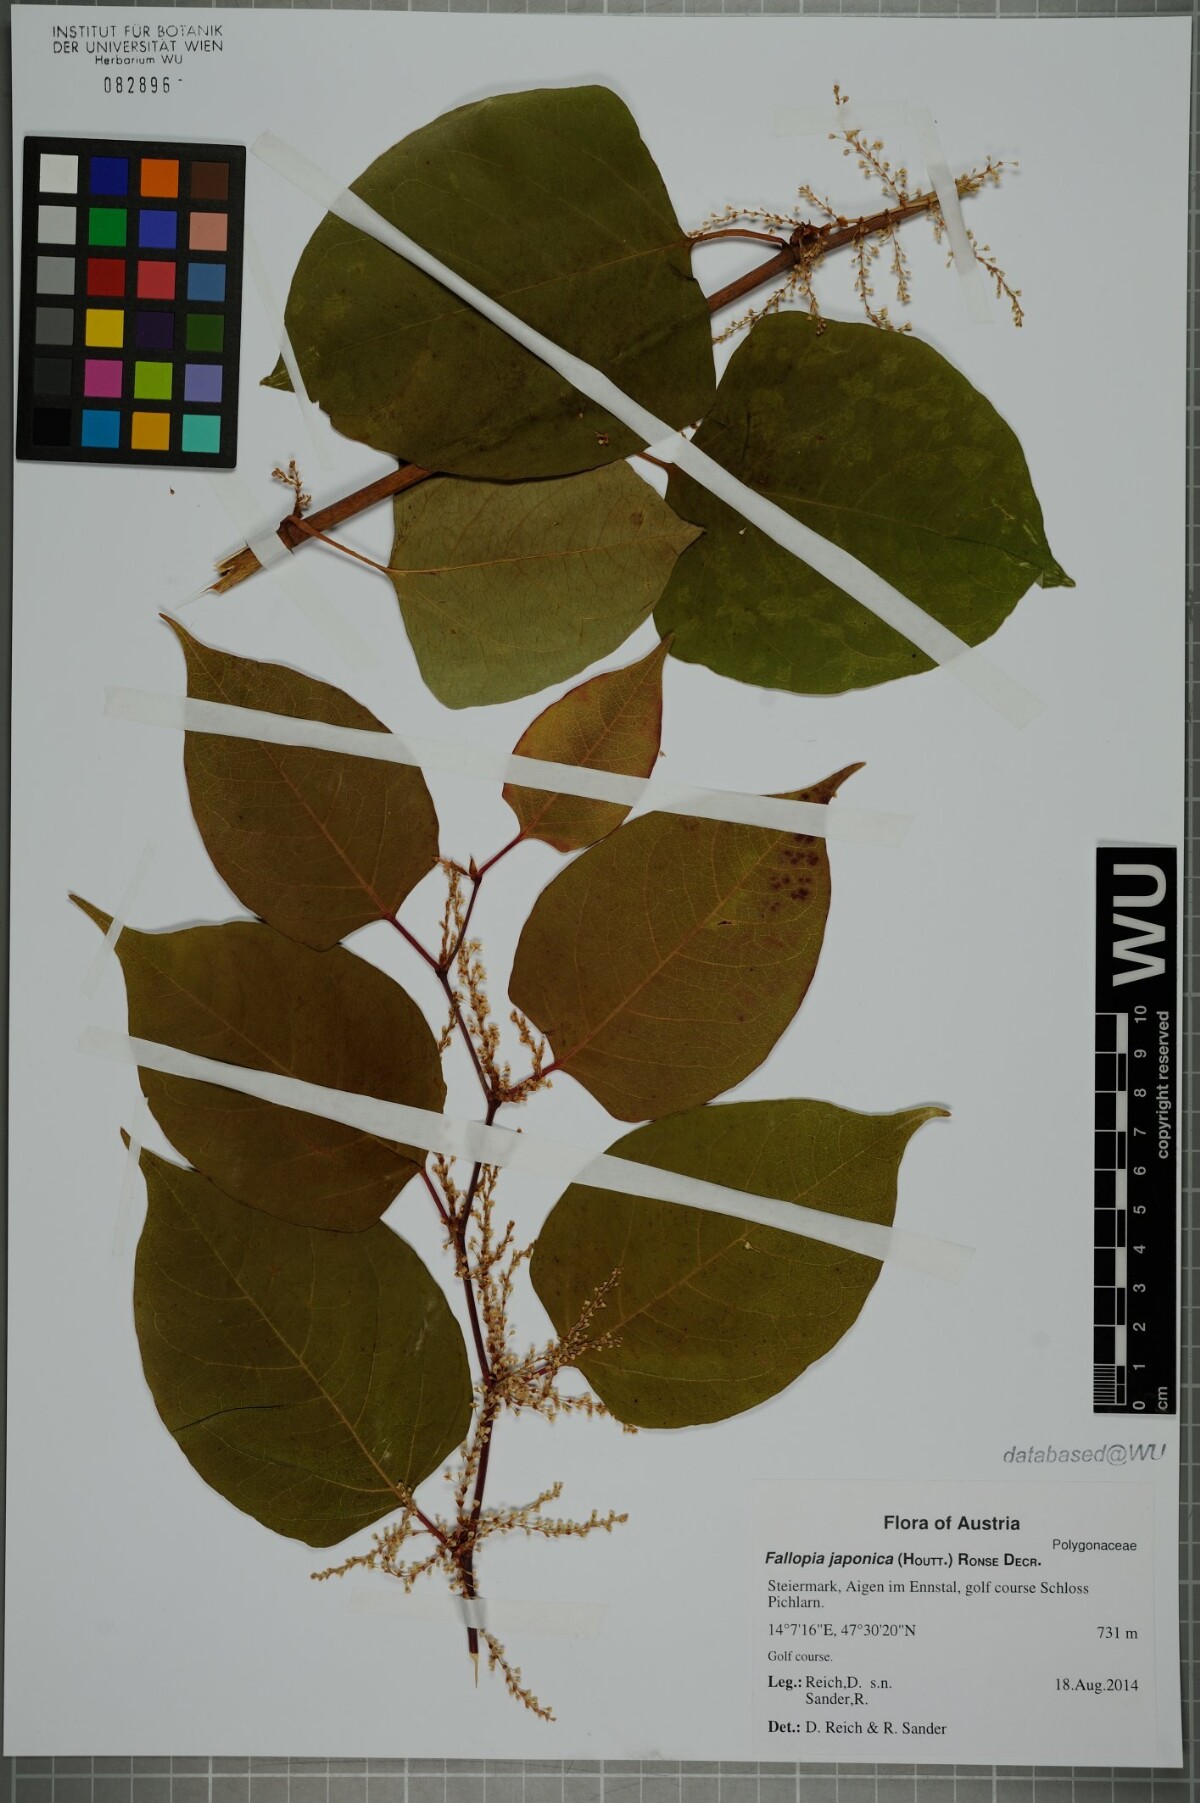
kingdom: Plantae
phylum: Tracheophyta
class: Magnoliopsida
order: Caryophyllales
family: Polygonaceae
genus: Reynoutria
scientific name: Reynoutria japonica
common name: Japanese knotweed
